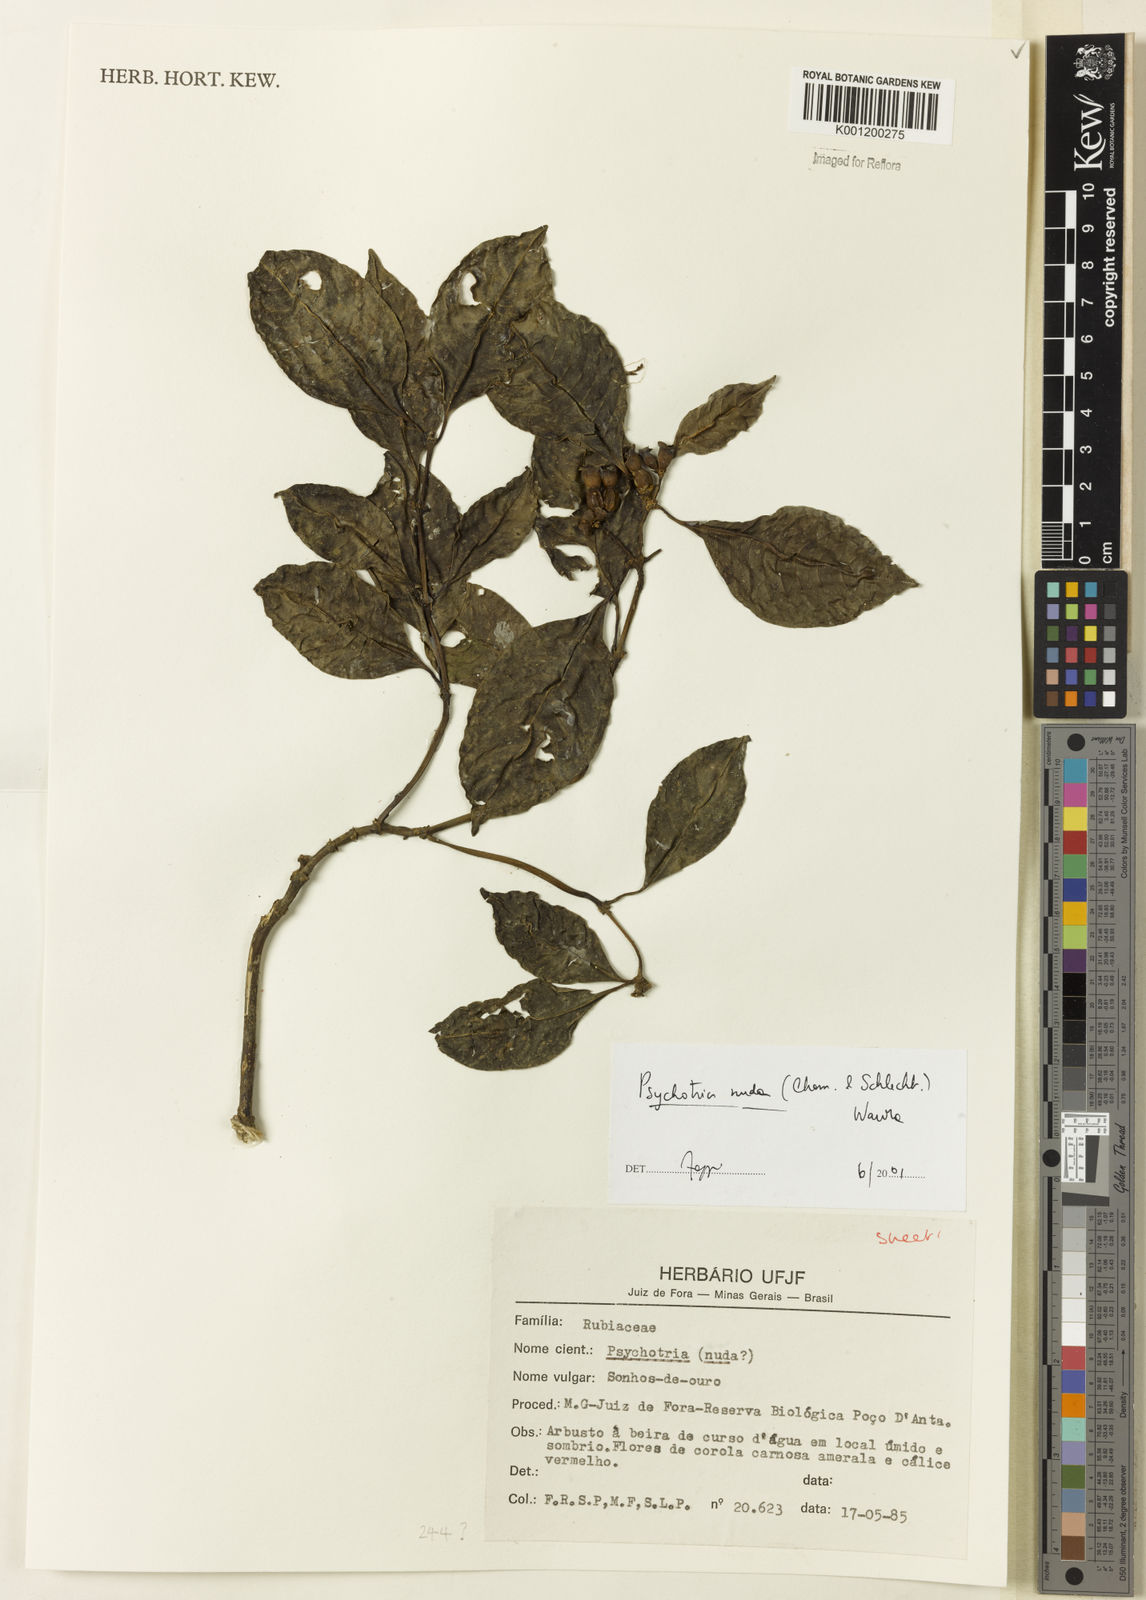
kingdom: Plantae
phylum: Tracheophyta
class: Magnoliopsida
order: Gentianales
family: Rubiaceae
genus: Psychotria
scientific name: Psychotria nuda
